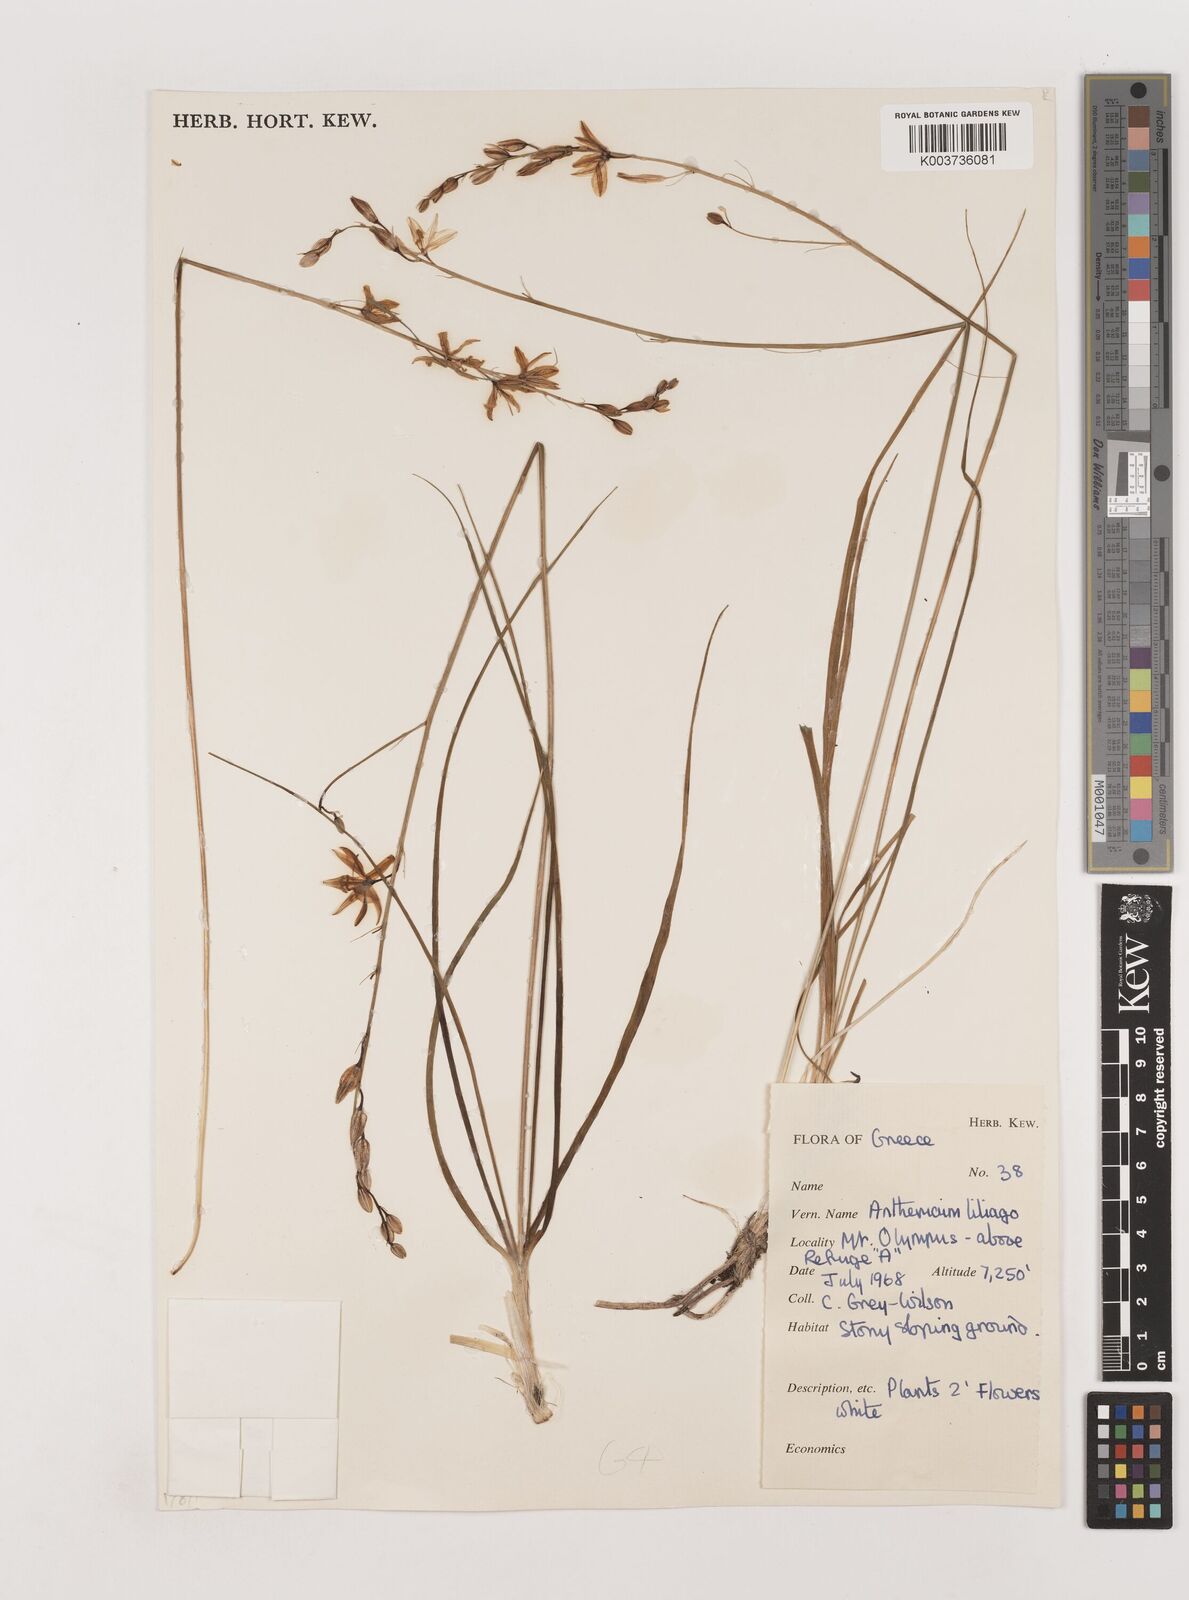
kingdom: Plantae
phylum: Tracheophyta
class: Liliopsida
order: Asparagales
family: Asparagaceae
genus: Anthericum
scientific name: Anthericum liliago
